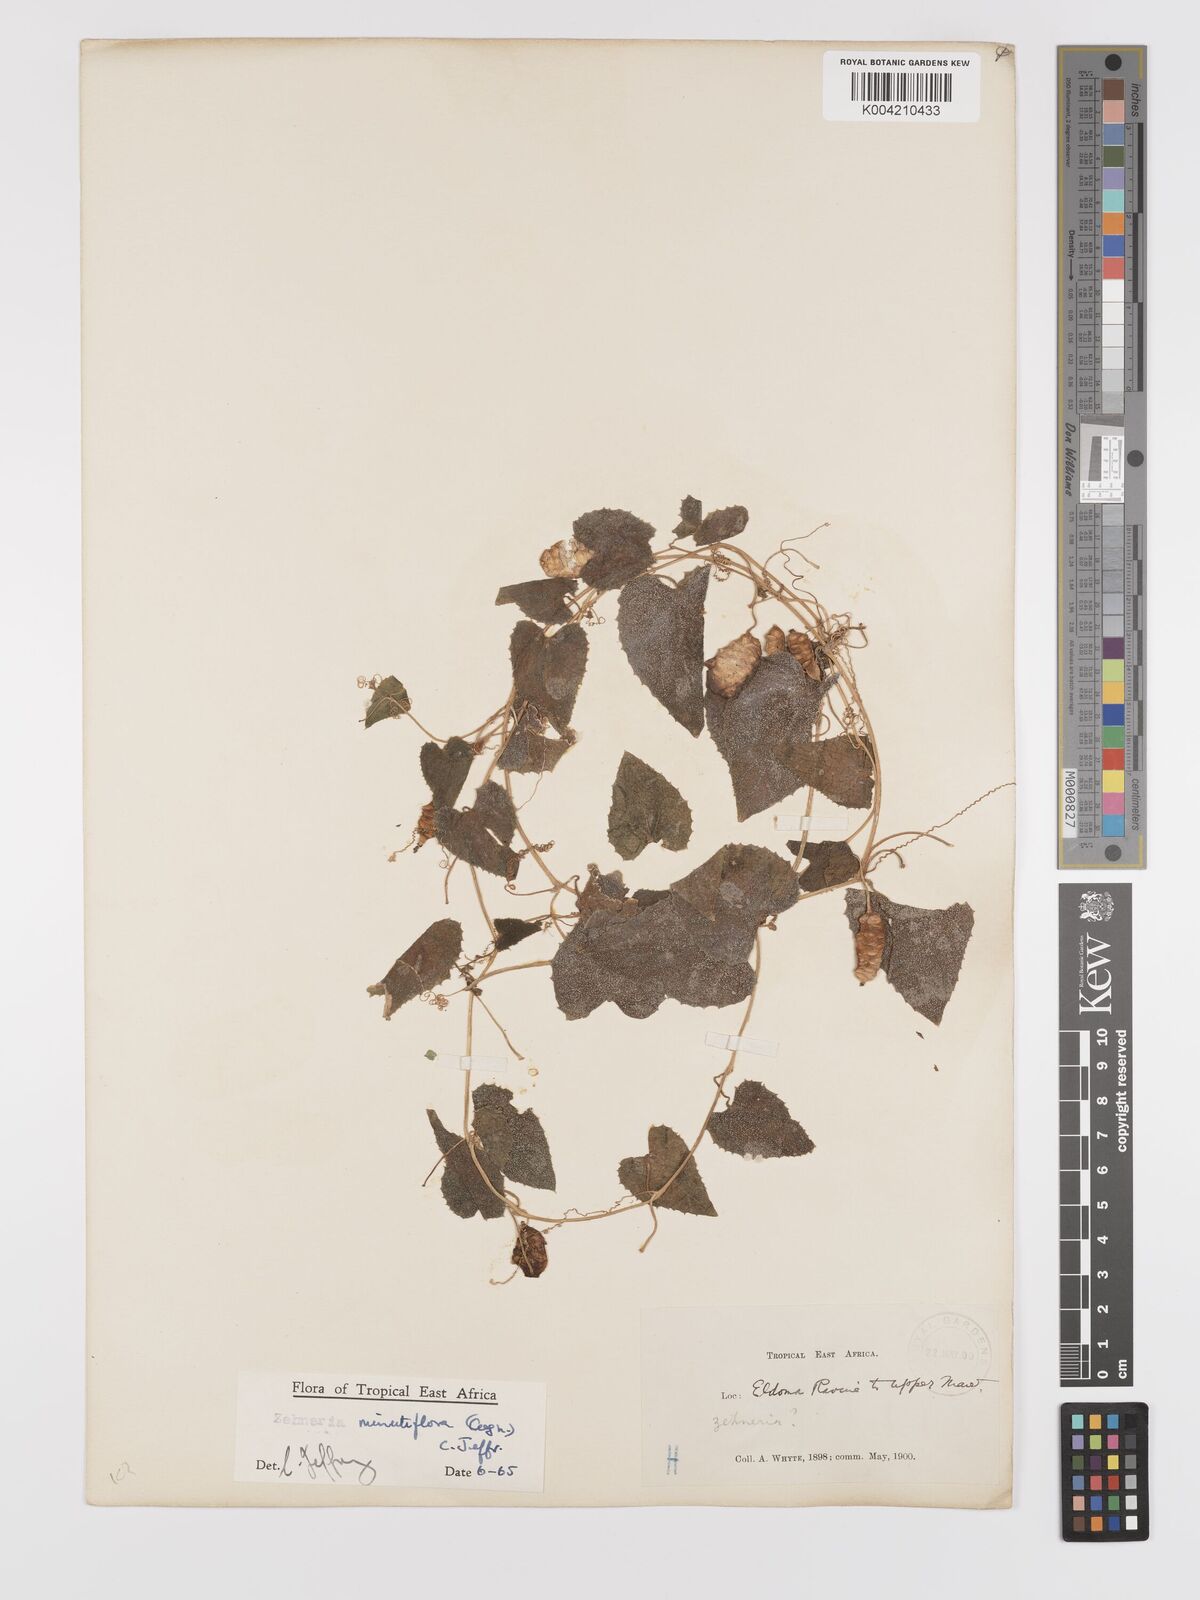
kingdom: Plantae
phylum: Tracheophyta
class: Magnoliopsida
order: Cucurbitales
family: Cucurbitaceae
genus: Zehneria
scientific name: Zehneria minutiflora
